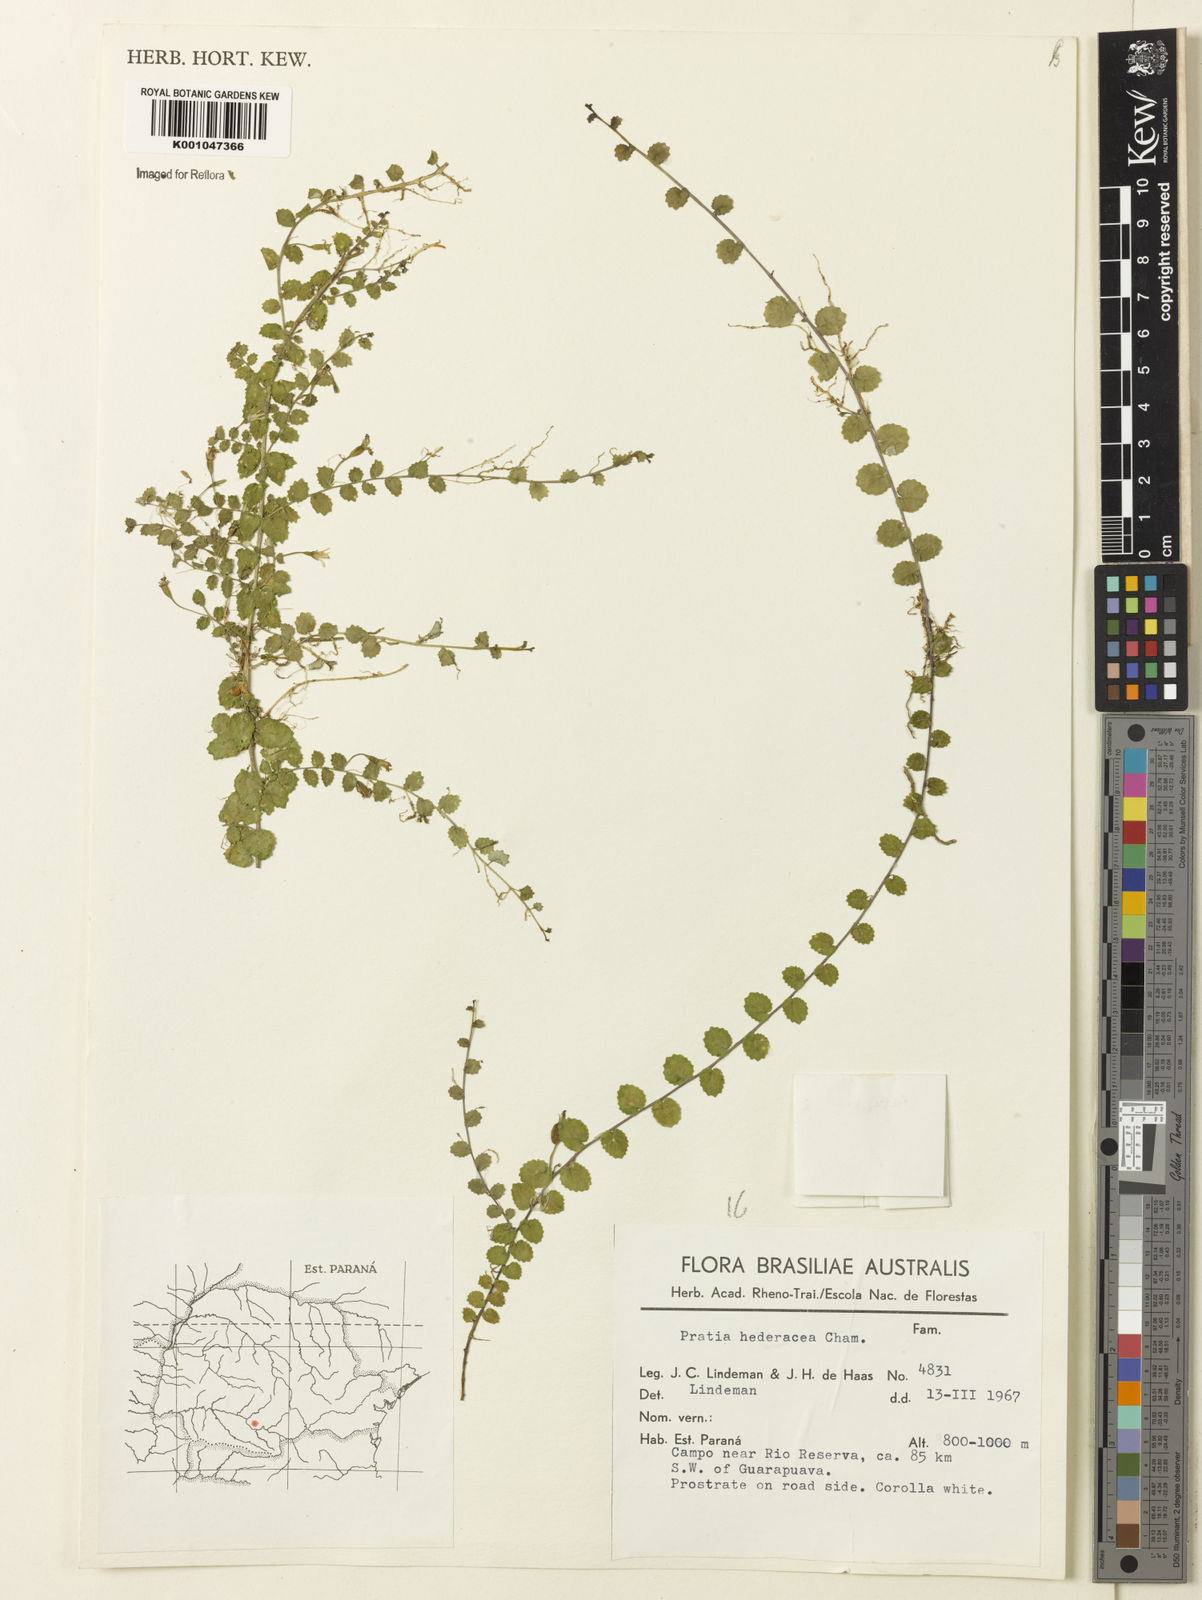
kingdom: Plantae
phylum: Tracheophyta
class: Magnoliopsida
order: Asterales
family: Campanulaceae
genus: Pratia
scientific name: Pratia
